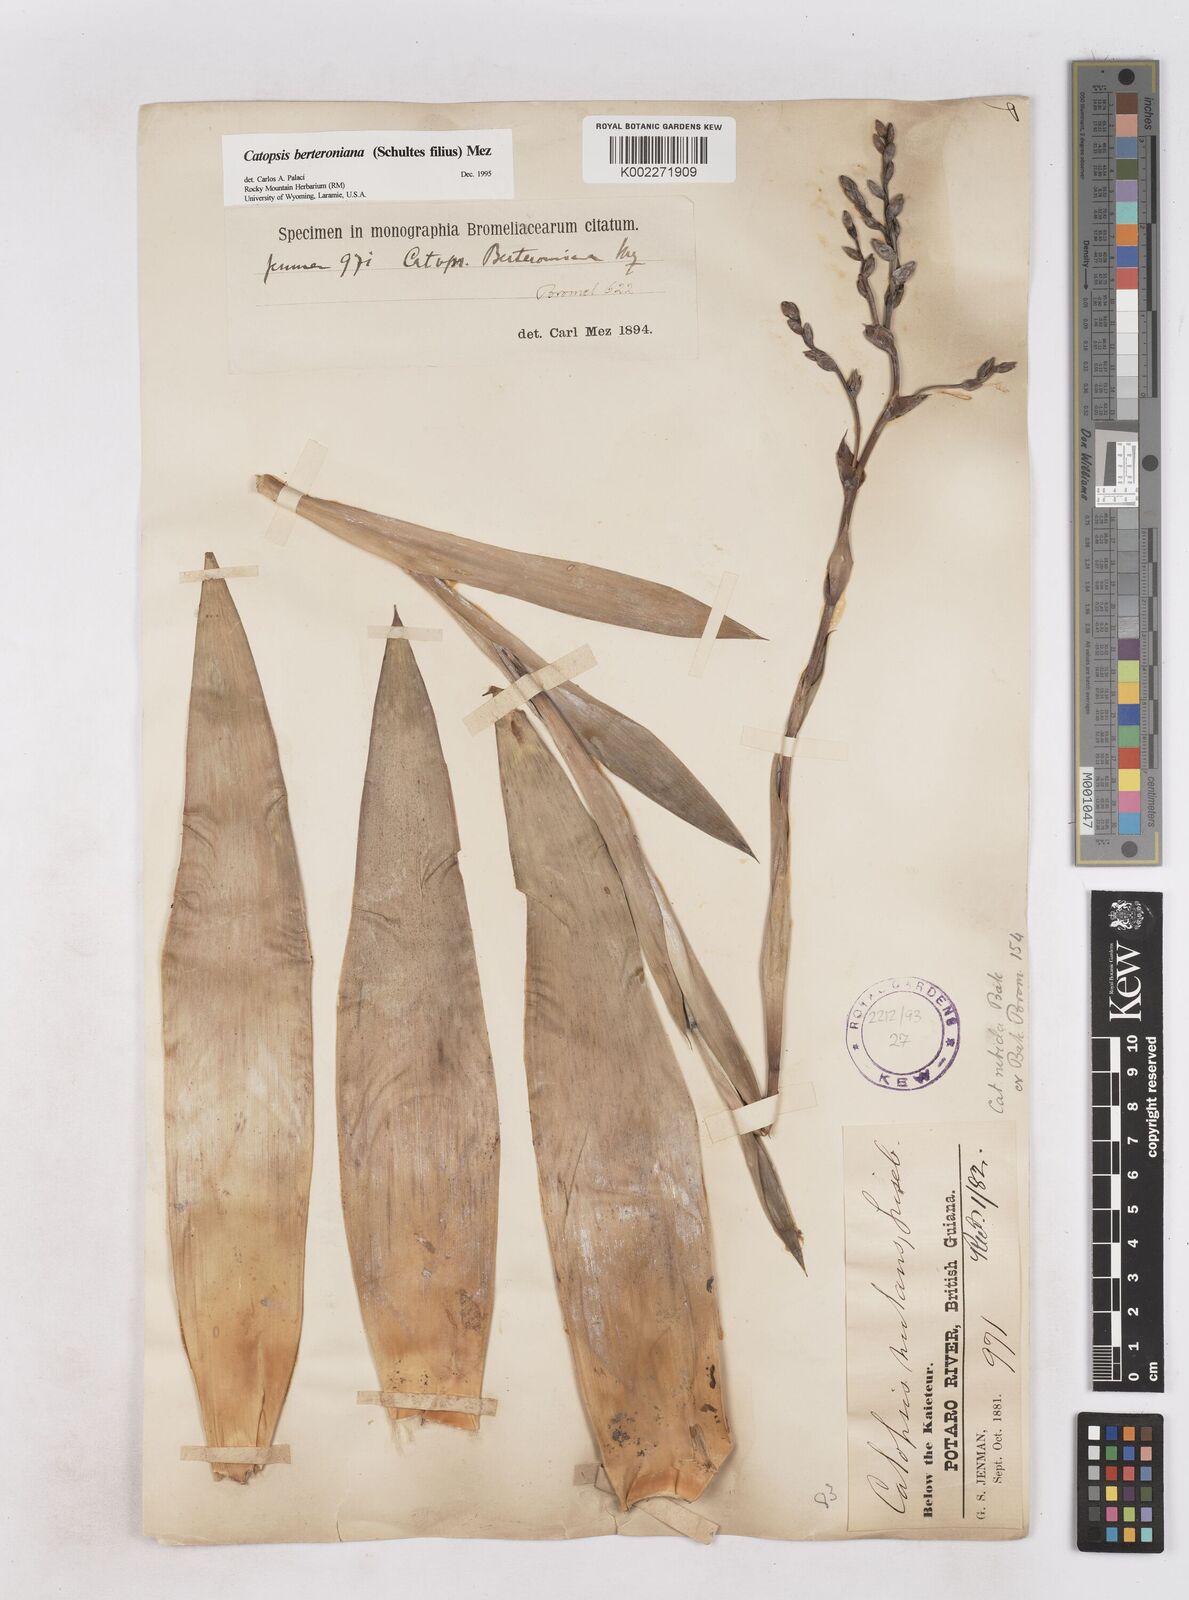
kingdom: Plantae
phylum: Tracheophyta
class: Liliopsida
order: Poales
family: Bromeliaceae
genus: Catopsis
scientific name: Catopsis berteroniana
